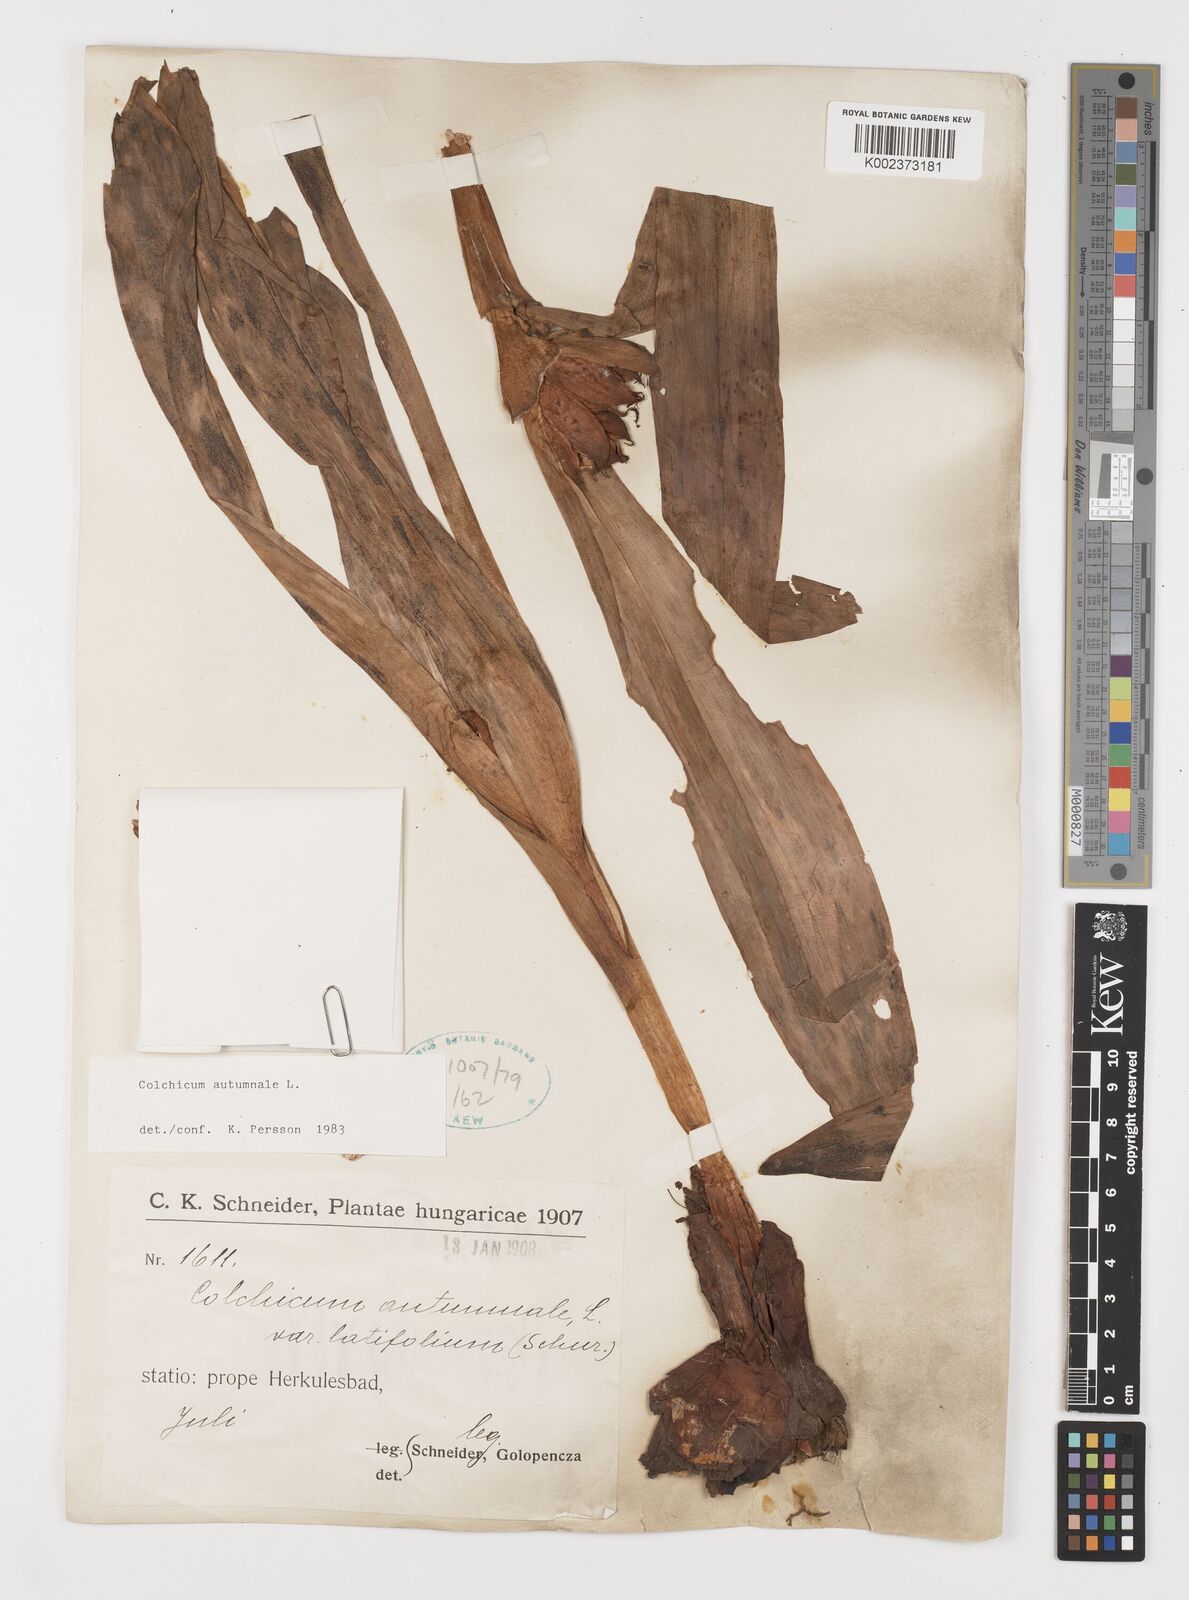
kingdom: Plantae
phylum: Tracheophyta
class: Liliopsida
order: Liliales
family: Colchicaceae
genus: Colchicum
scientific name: Colchicum autumnale
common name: Autumn crocus
